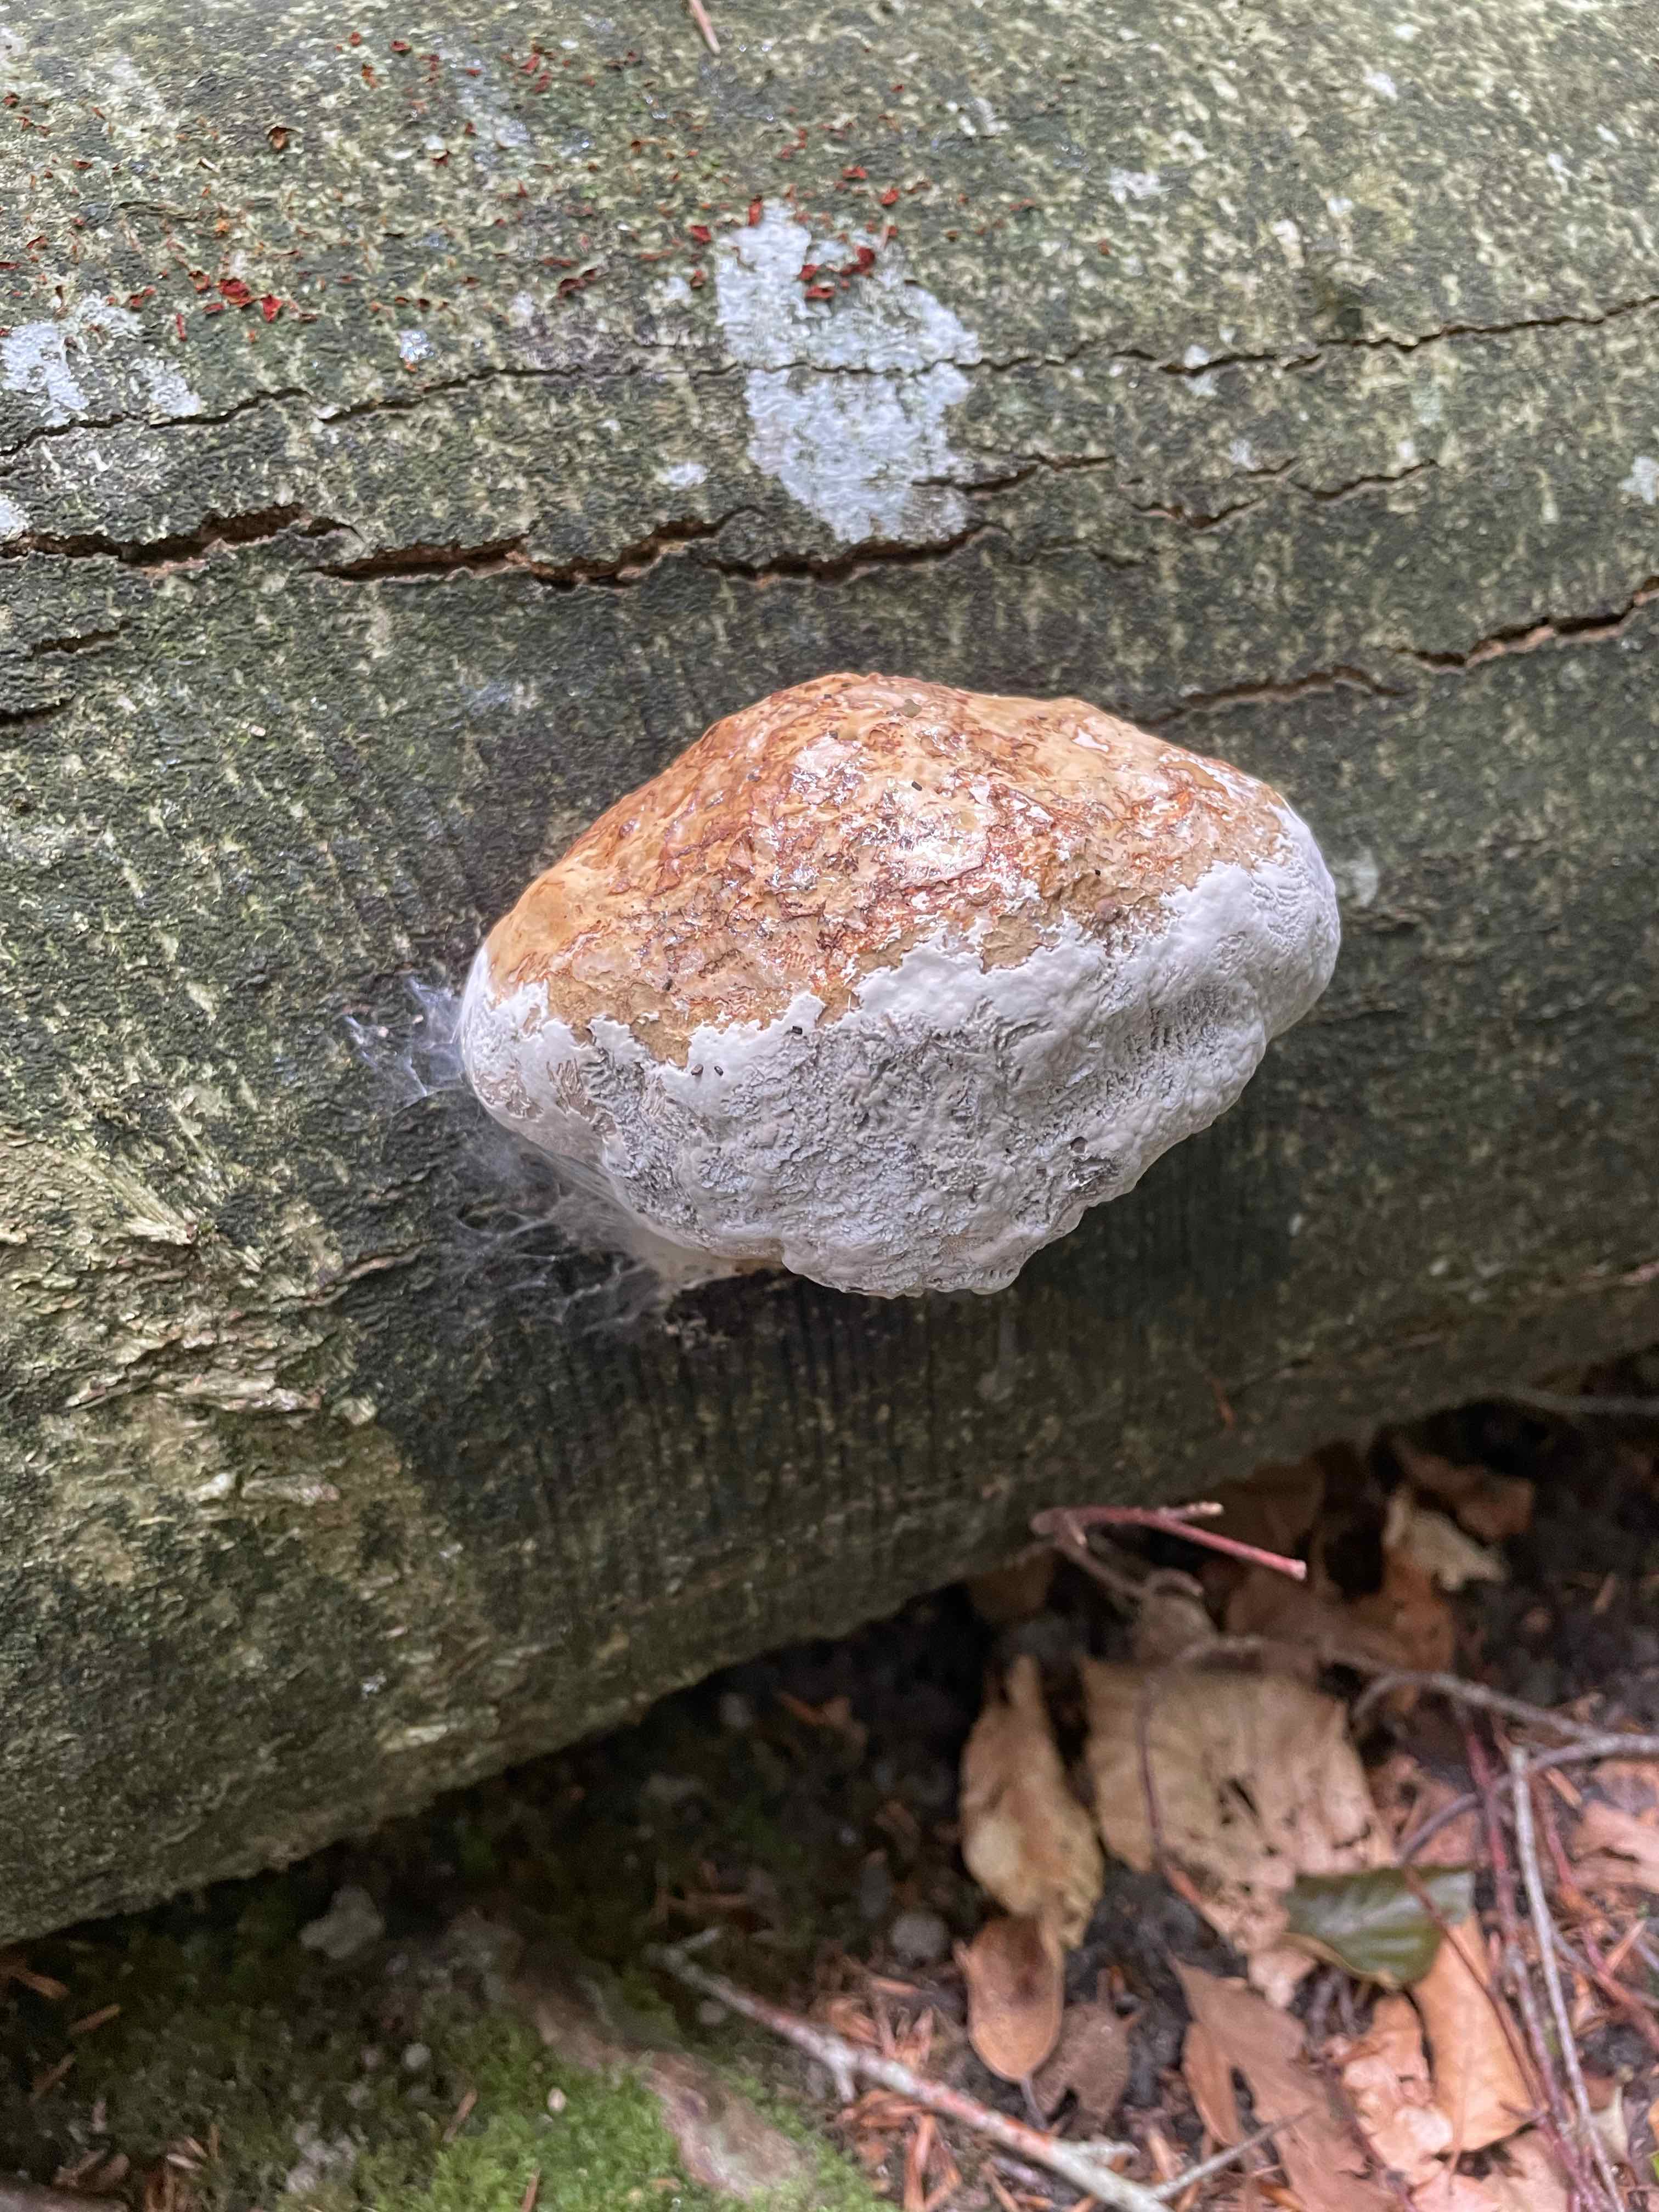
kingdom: Fungi
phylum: Basidiomycota
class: Agaricomycetes
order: Polyporales
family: Polyporaceae
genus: Fomes
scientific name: Fomes fomentarius
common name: tøndersvamp
